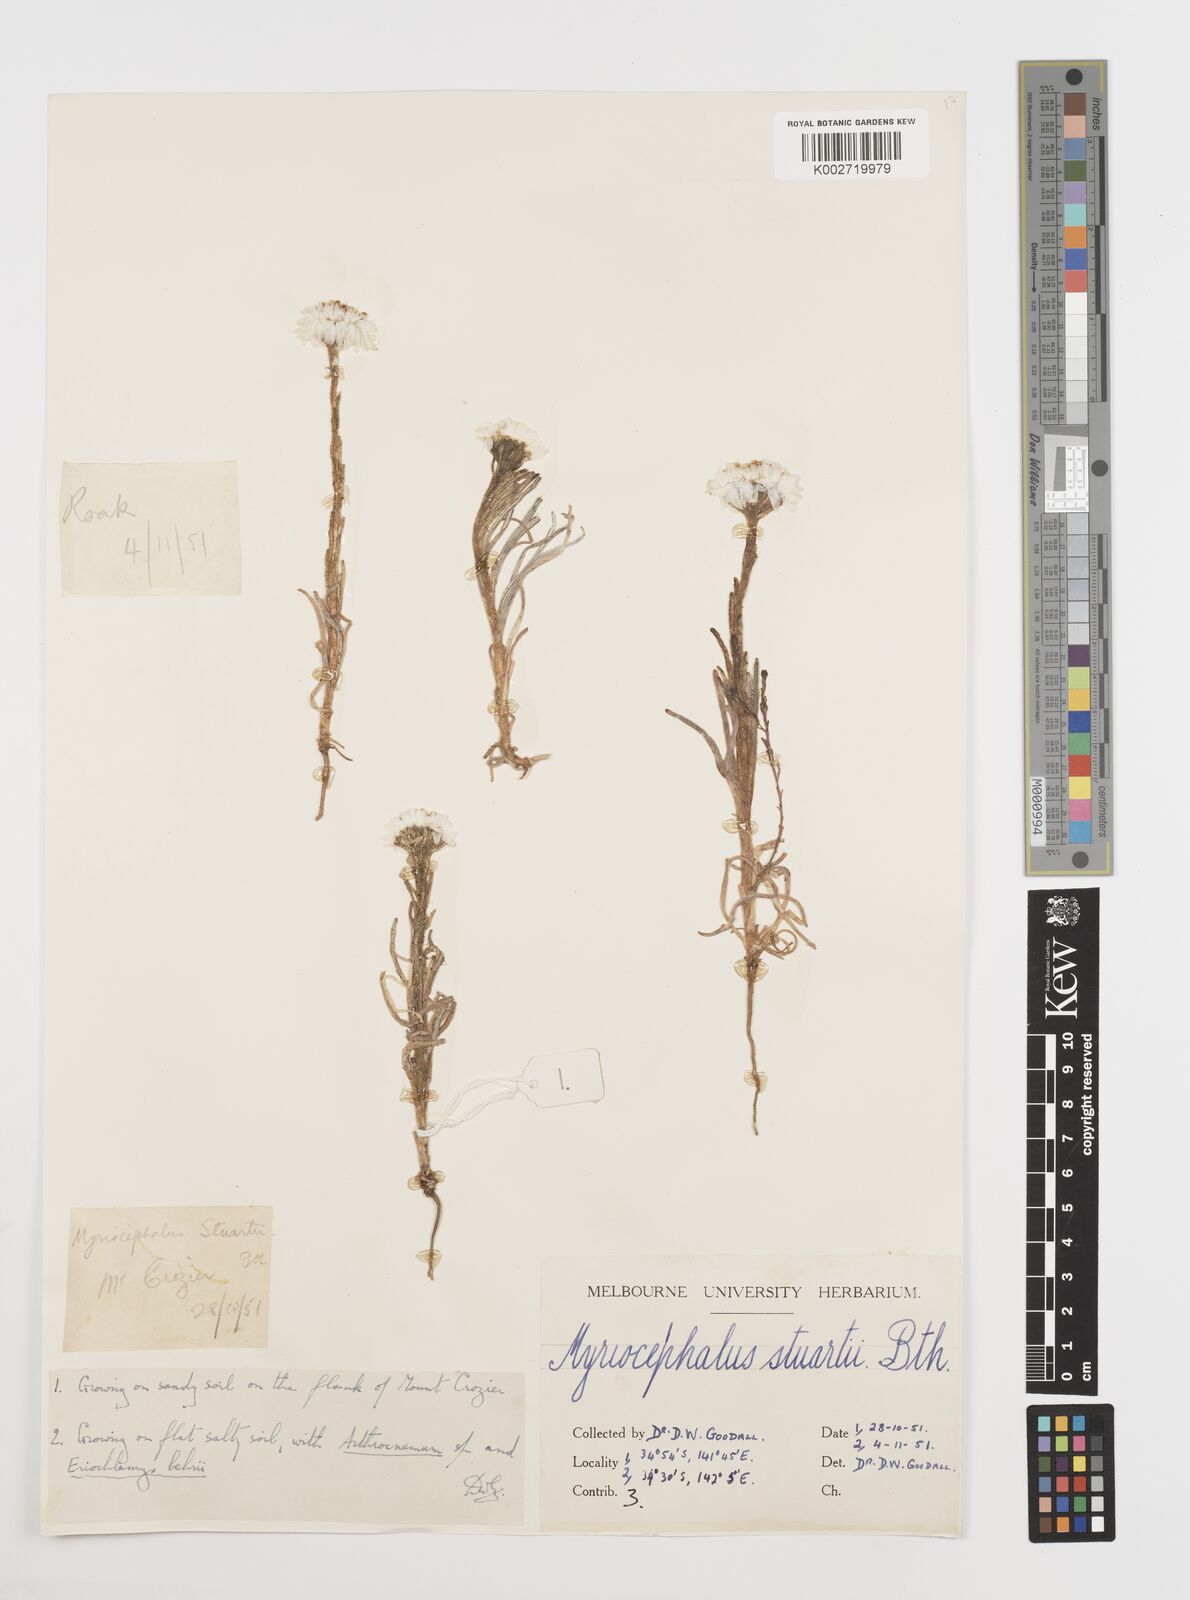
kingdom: Plantae
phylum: Tracheophyta
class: Magnoliopsida
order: Asterales
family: Asteraceae
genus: Polycalymma
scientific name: Polycalymma stuartii
